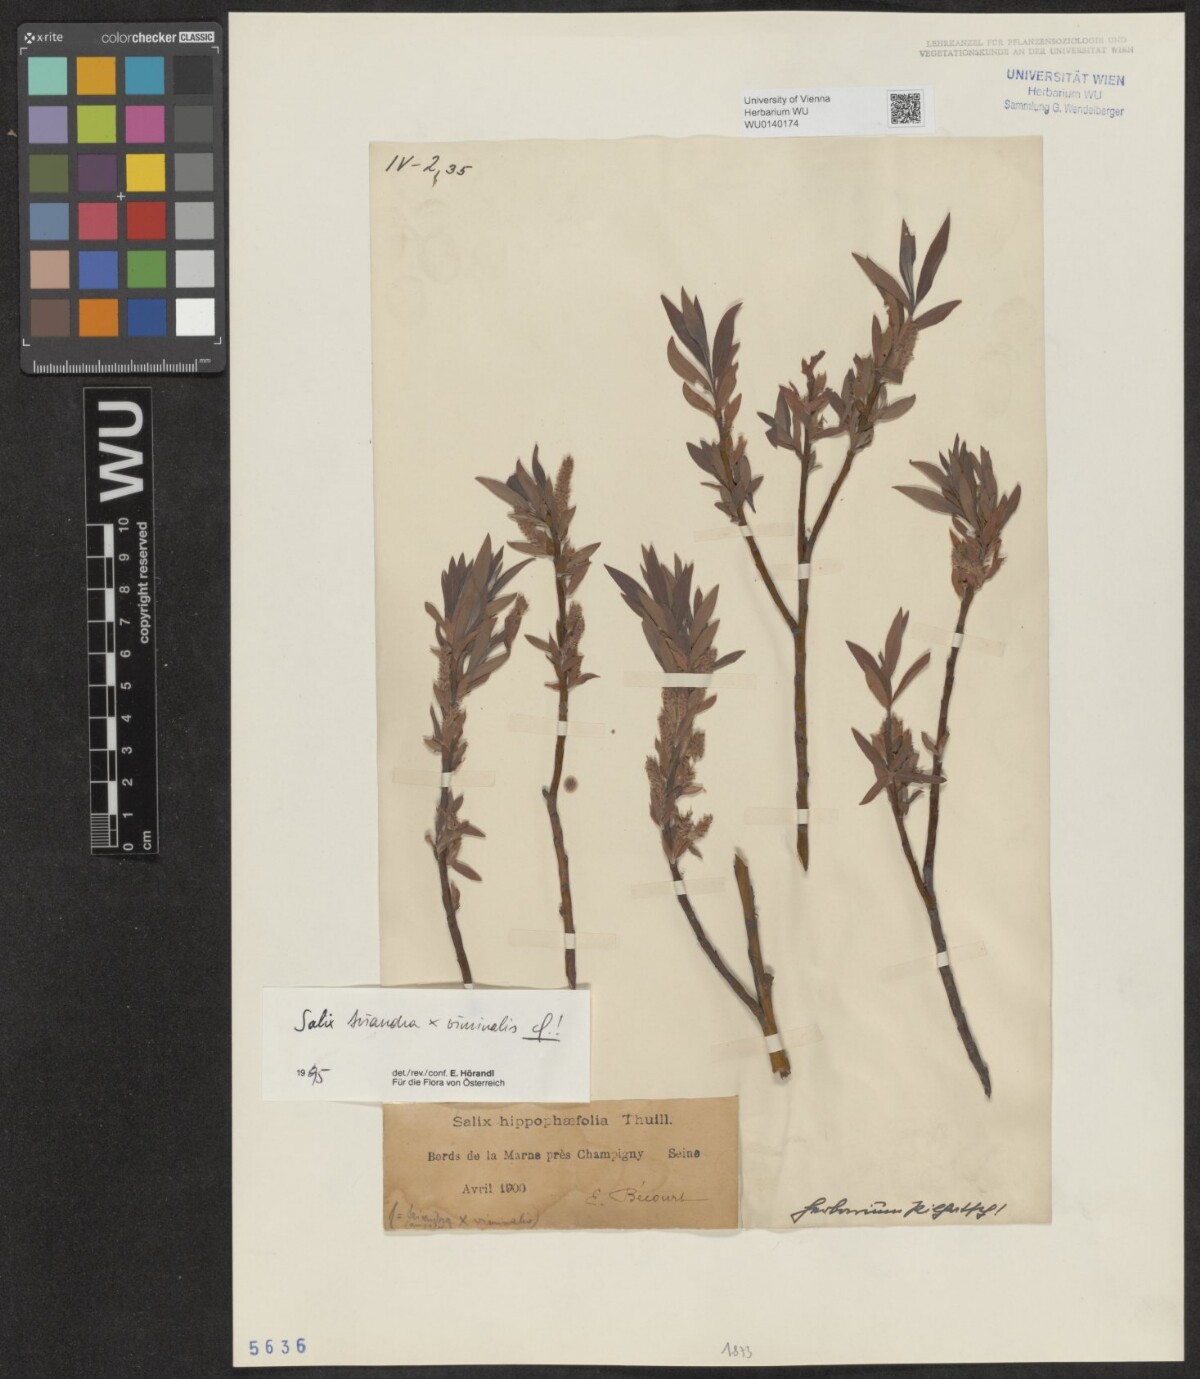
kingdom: Plantae
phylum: Tracheophyta
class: Magnoliopsida
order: Malpighiales
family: Salicaceae
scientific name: Salicaceae
